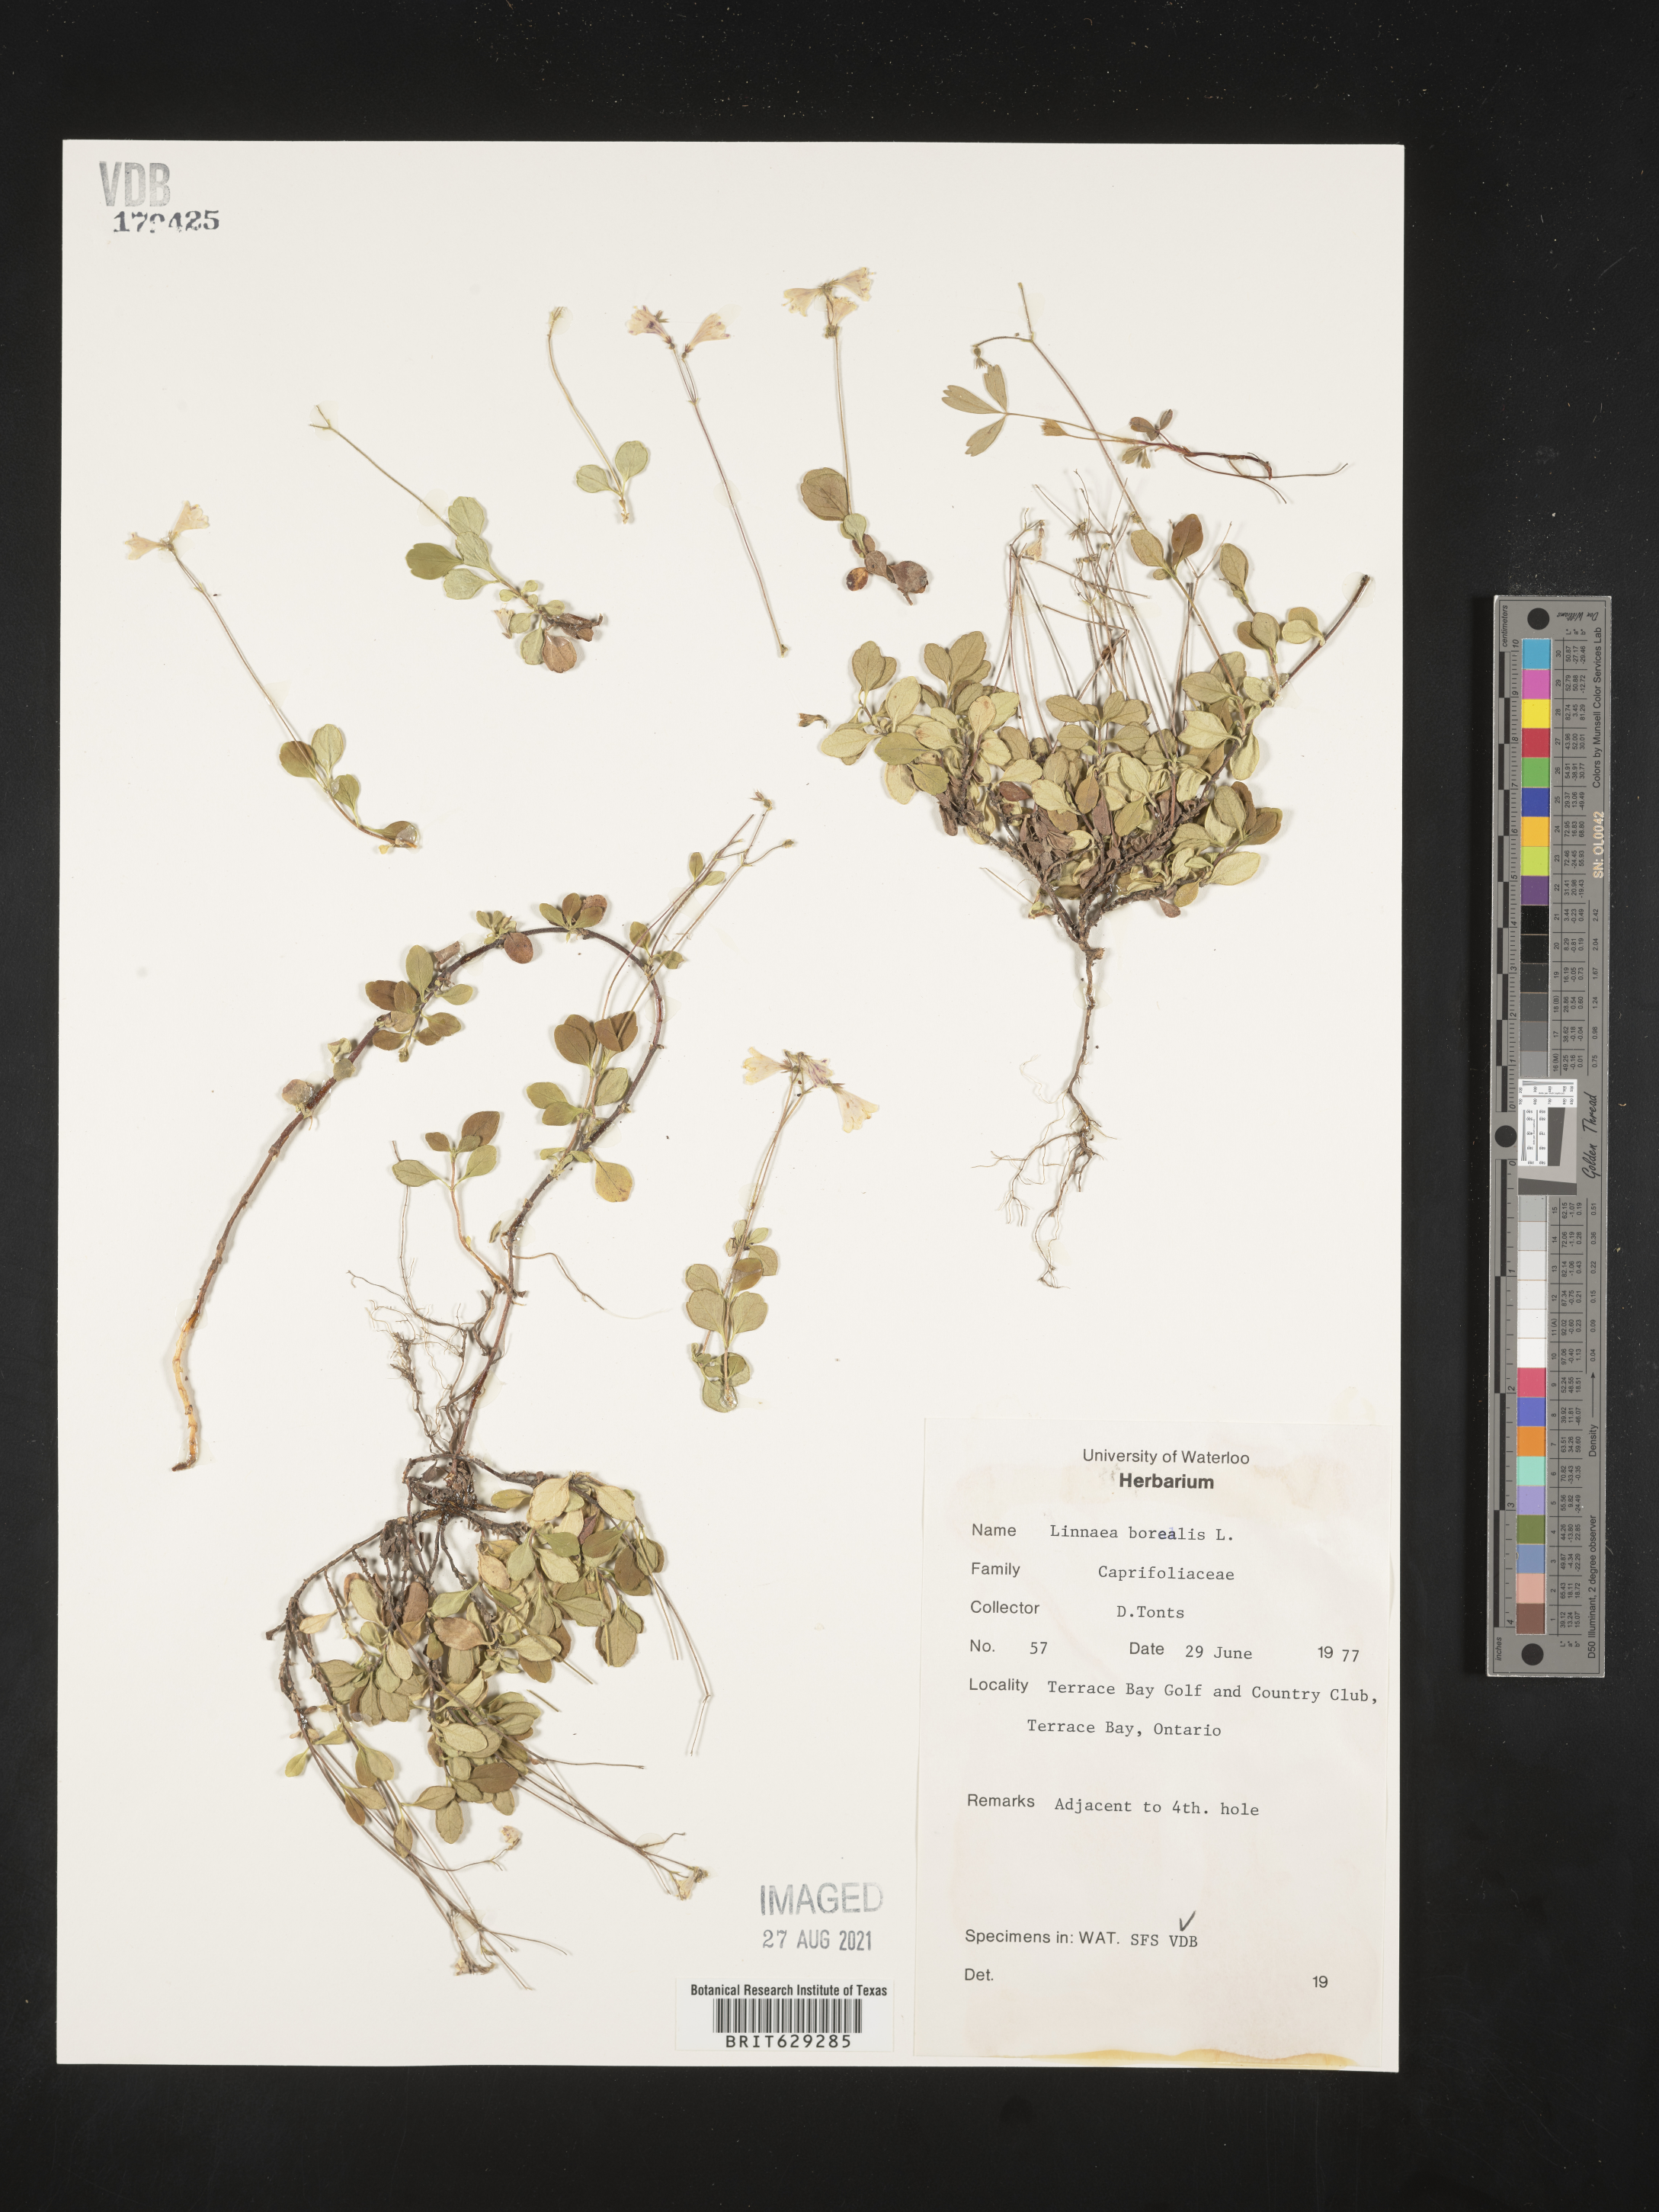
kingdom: Plantae
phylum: Tracheophyta
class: Magnoliopsida
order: Dipsacales
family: Caprifoliaceae
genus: Linnaea
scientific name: Linnaea borealis
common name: Twinflower
